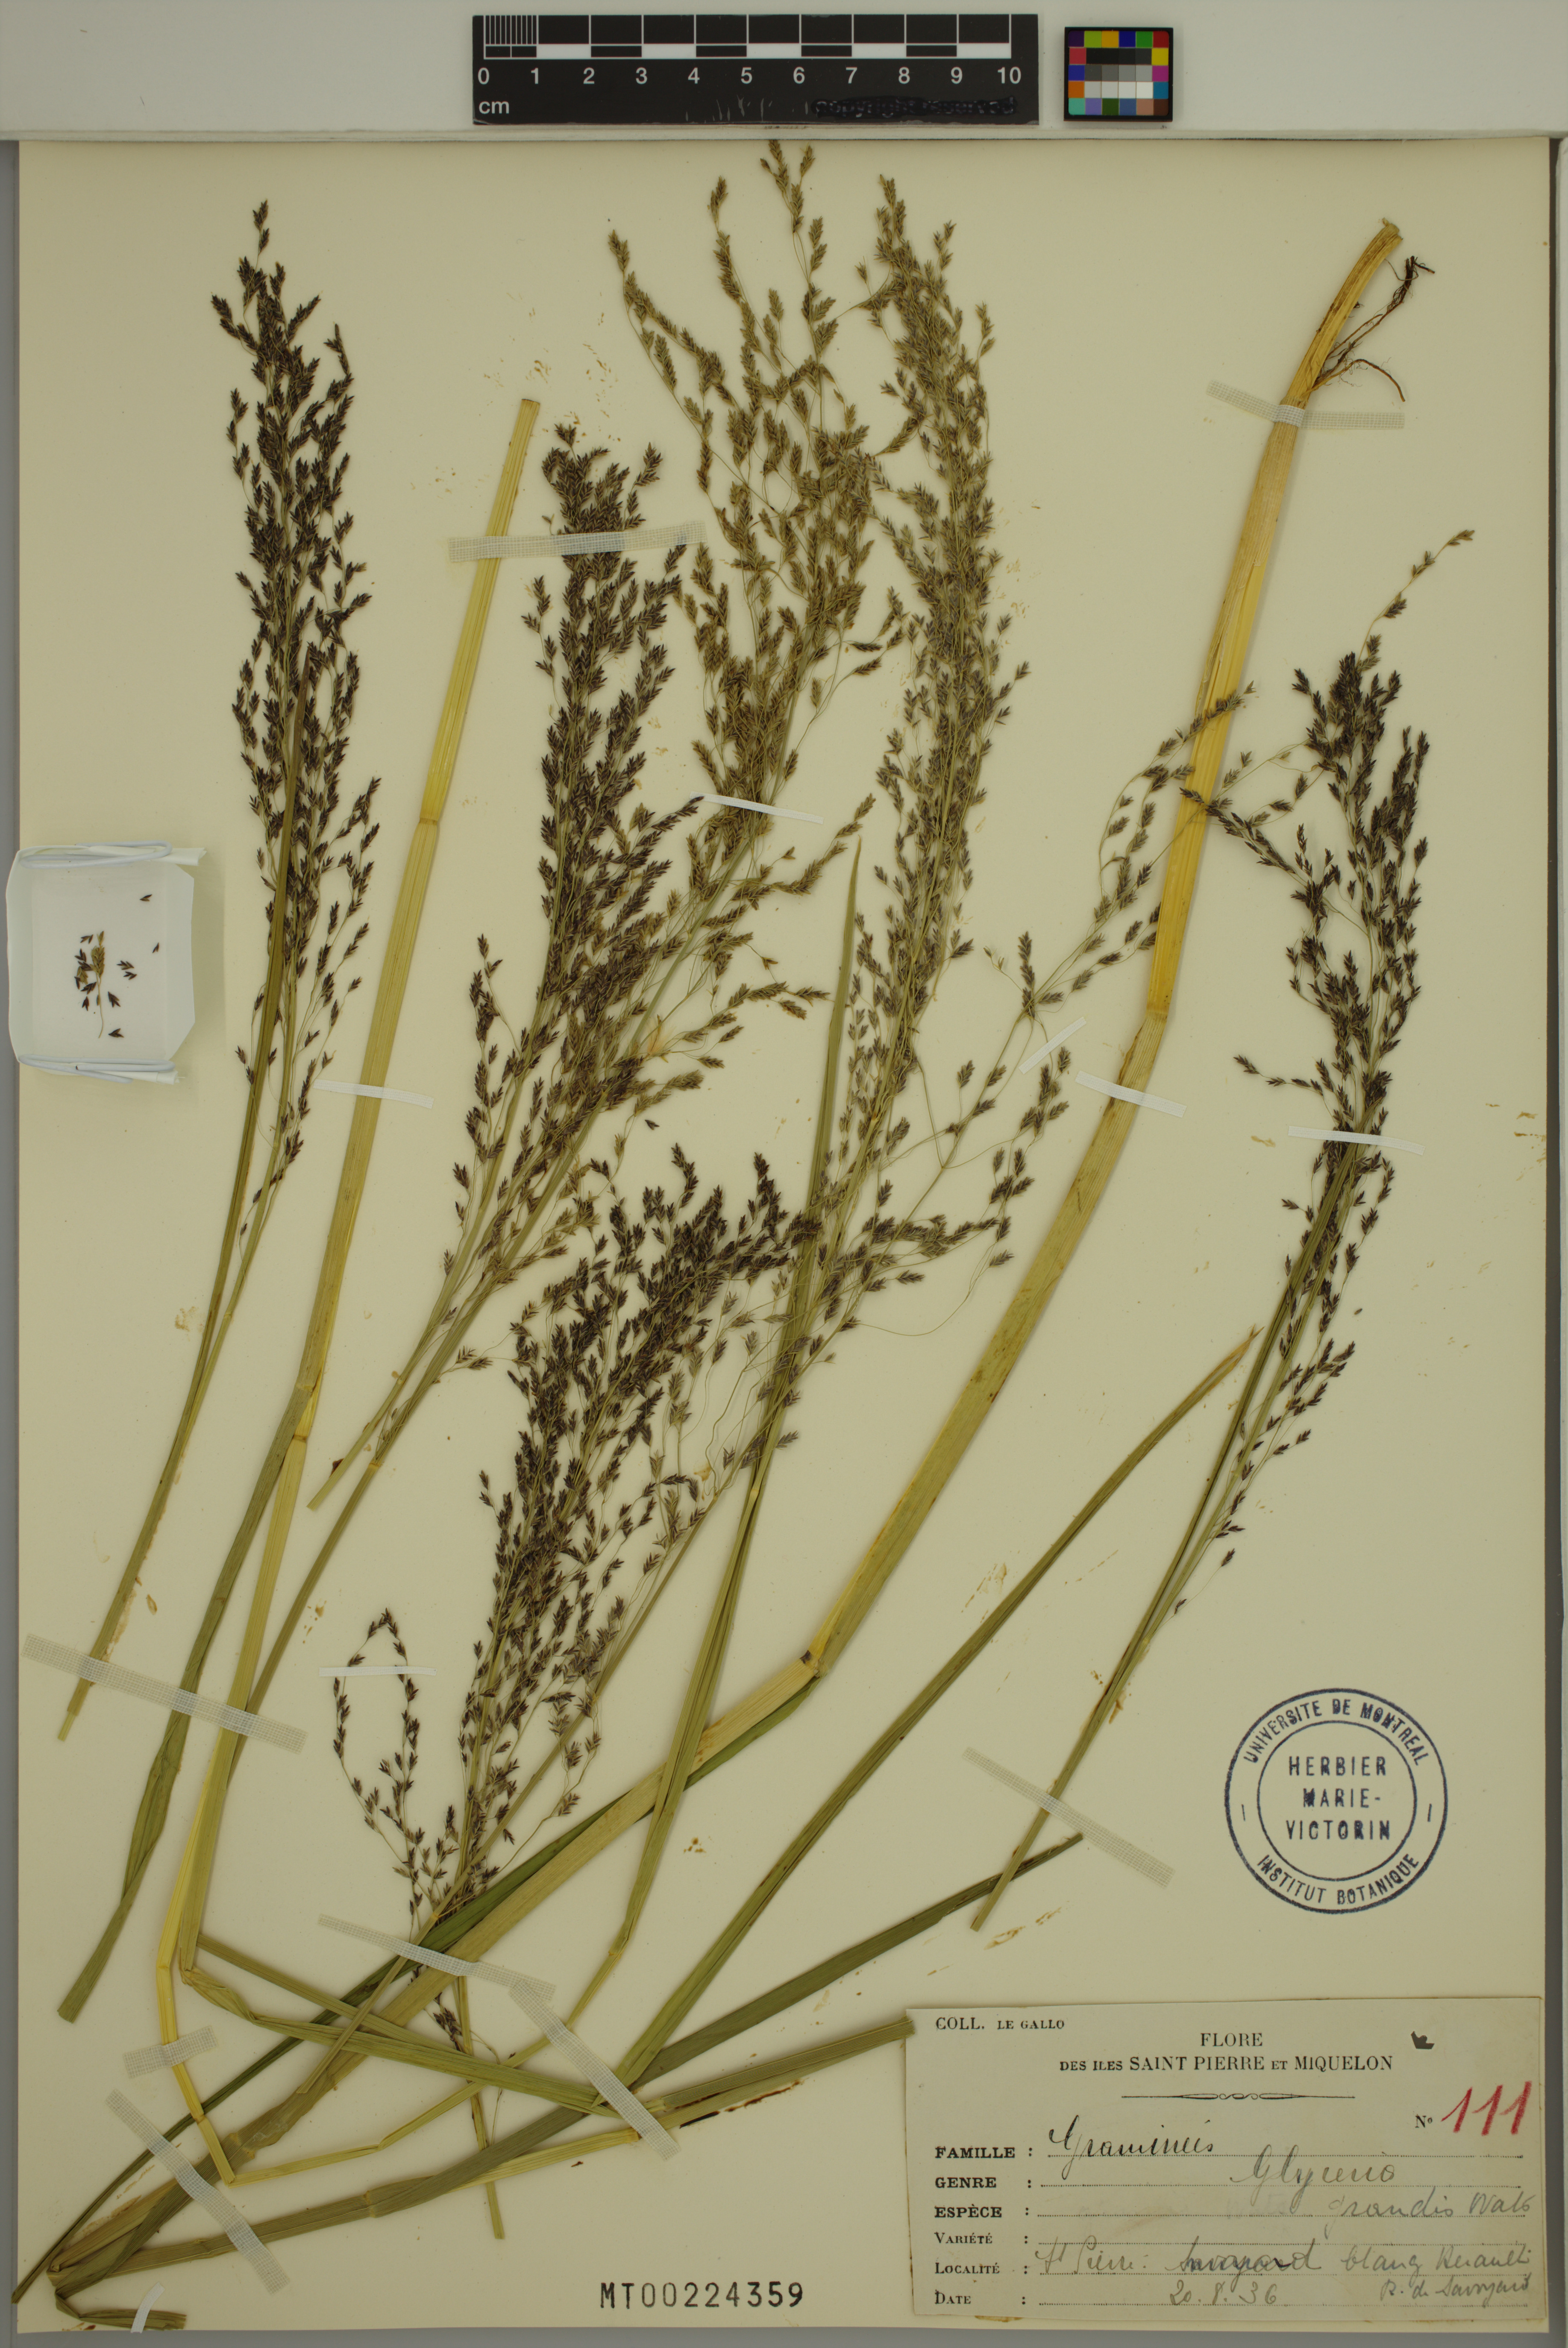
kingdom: Plantae
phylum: Tracheophyta
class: Liliopsida
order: Poales
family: Poaceae
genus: Glyceria
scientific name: Glyceria grandis
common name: American glyceria
